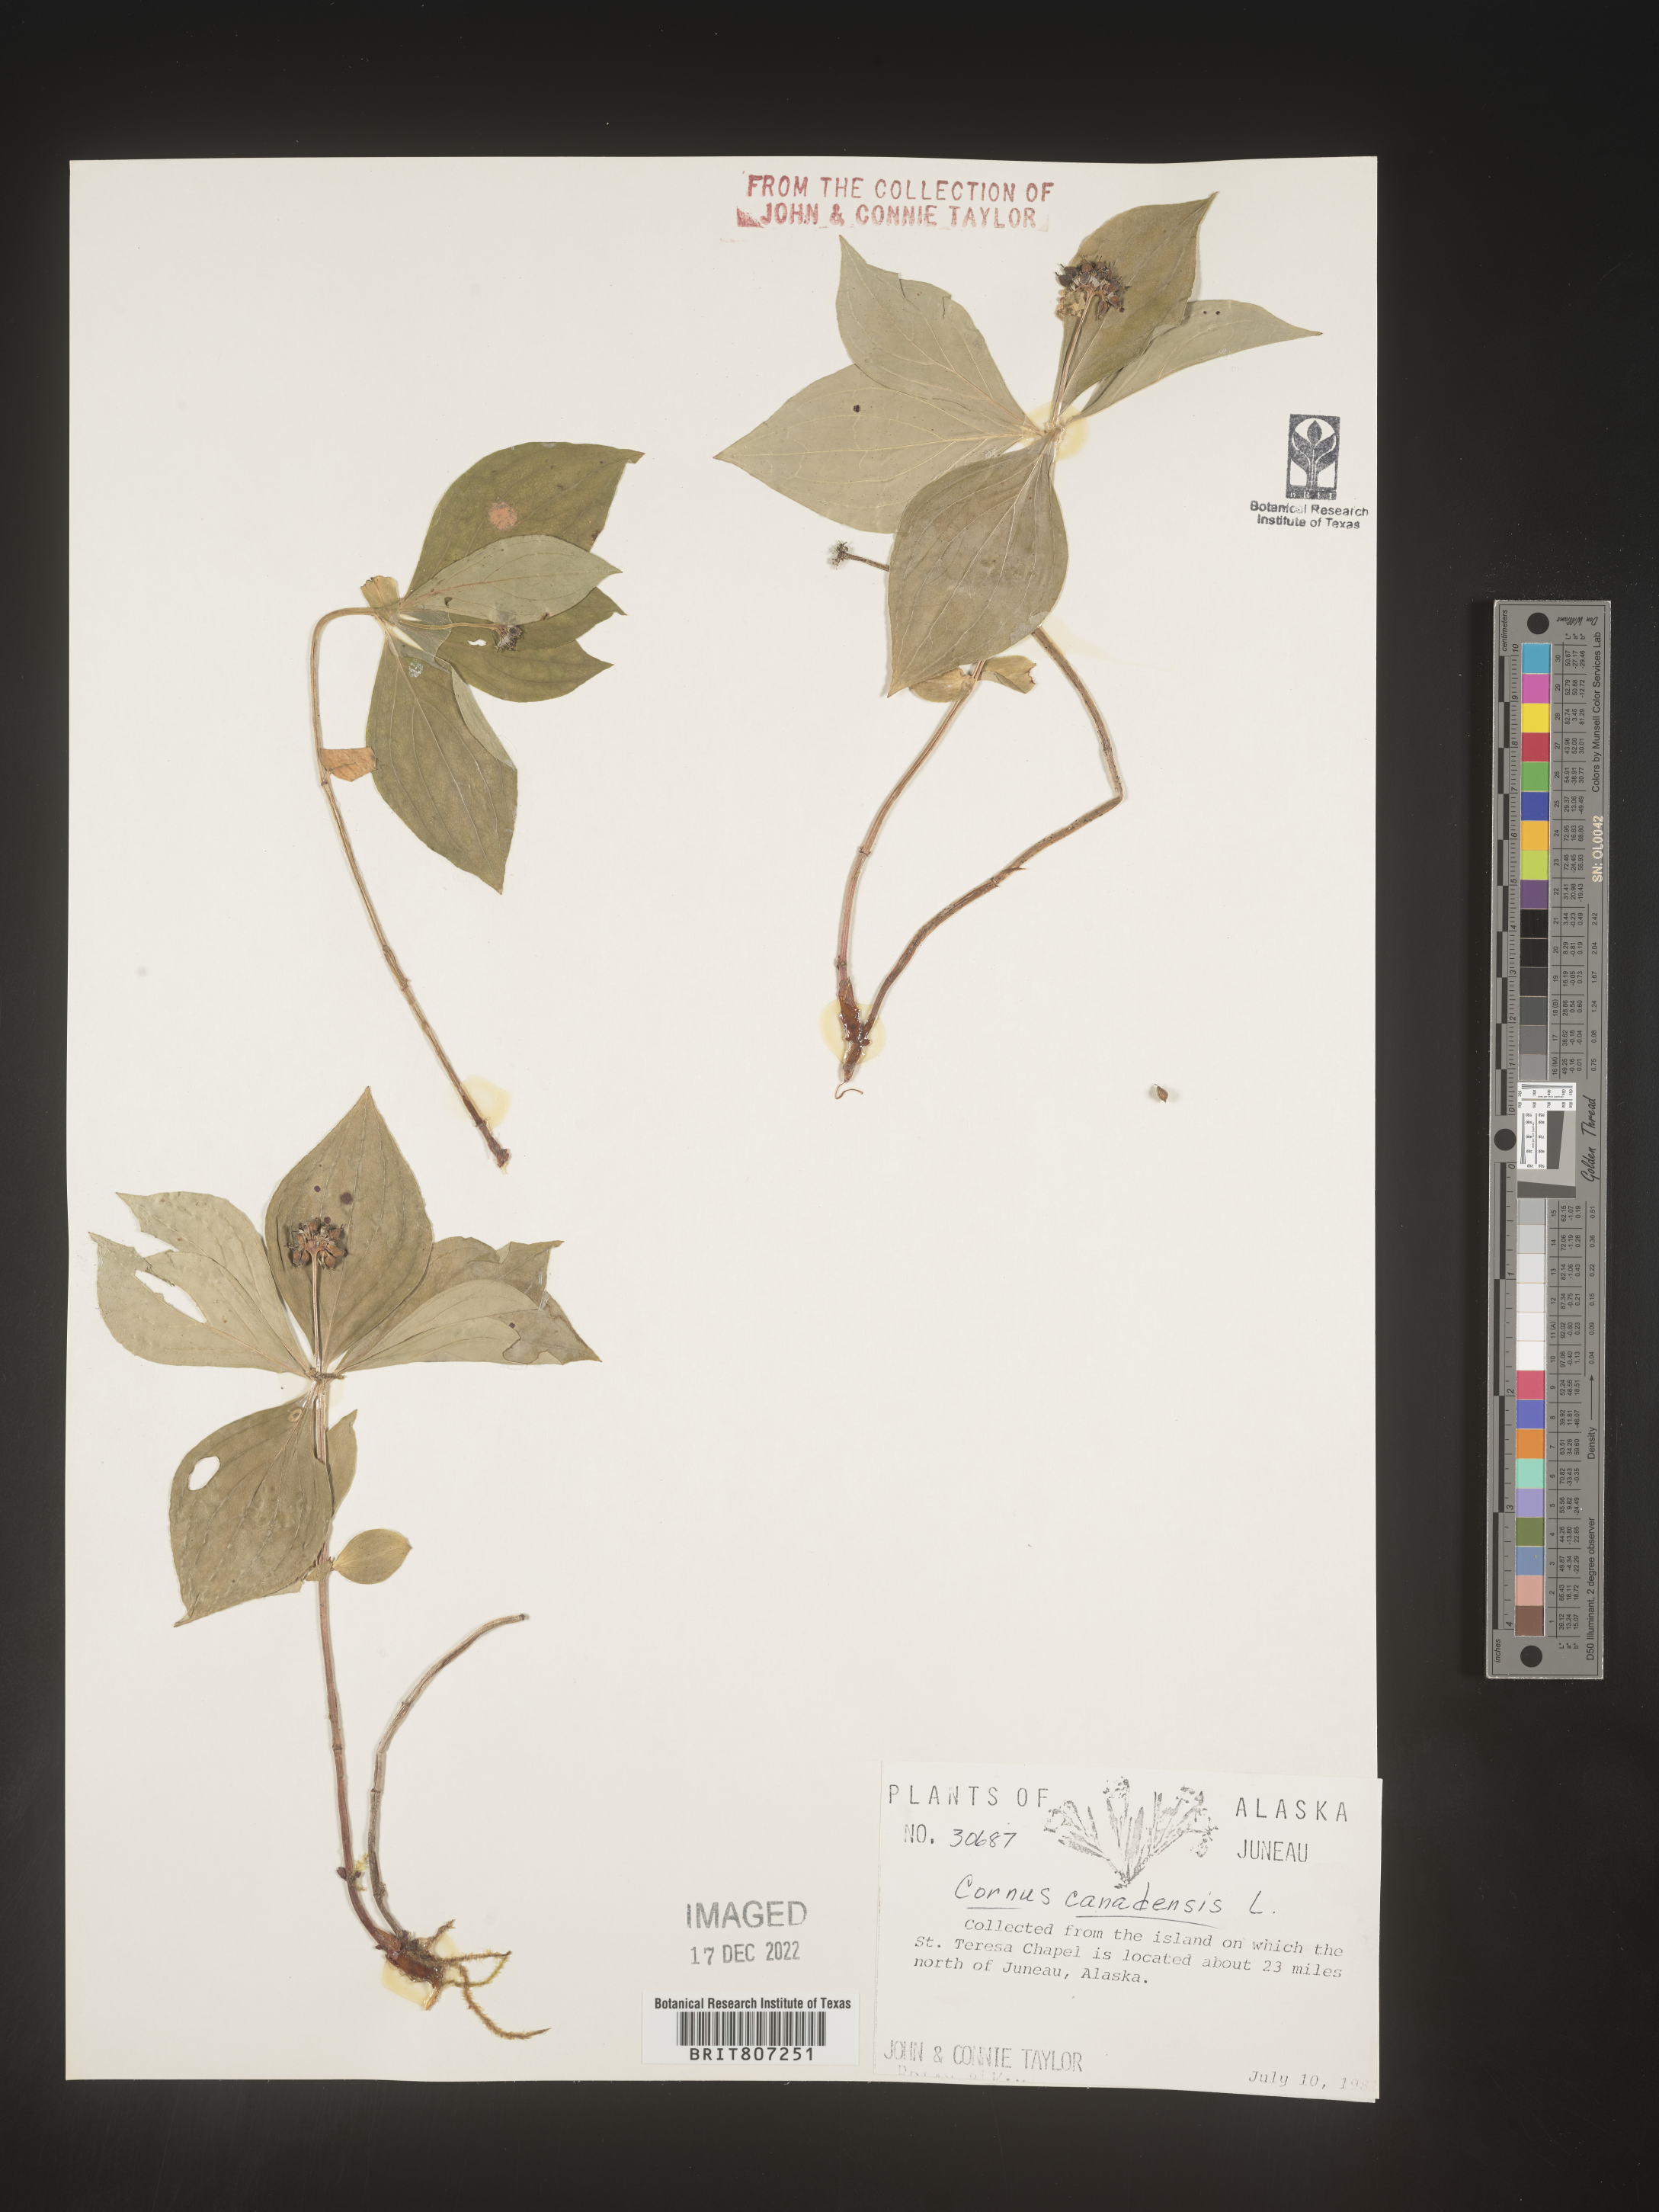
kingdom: Plantae
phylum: Tracheophyta
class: Magnoliopsida
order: Cornales
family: Cornaceae
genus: Cornus
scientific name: Cornus canadensis
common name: Creeping dogwood
